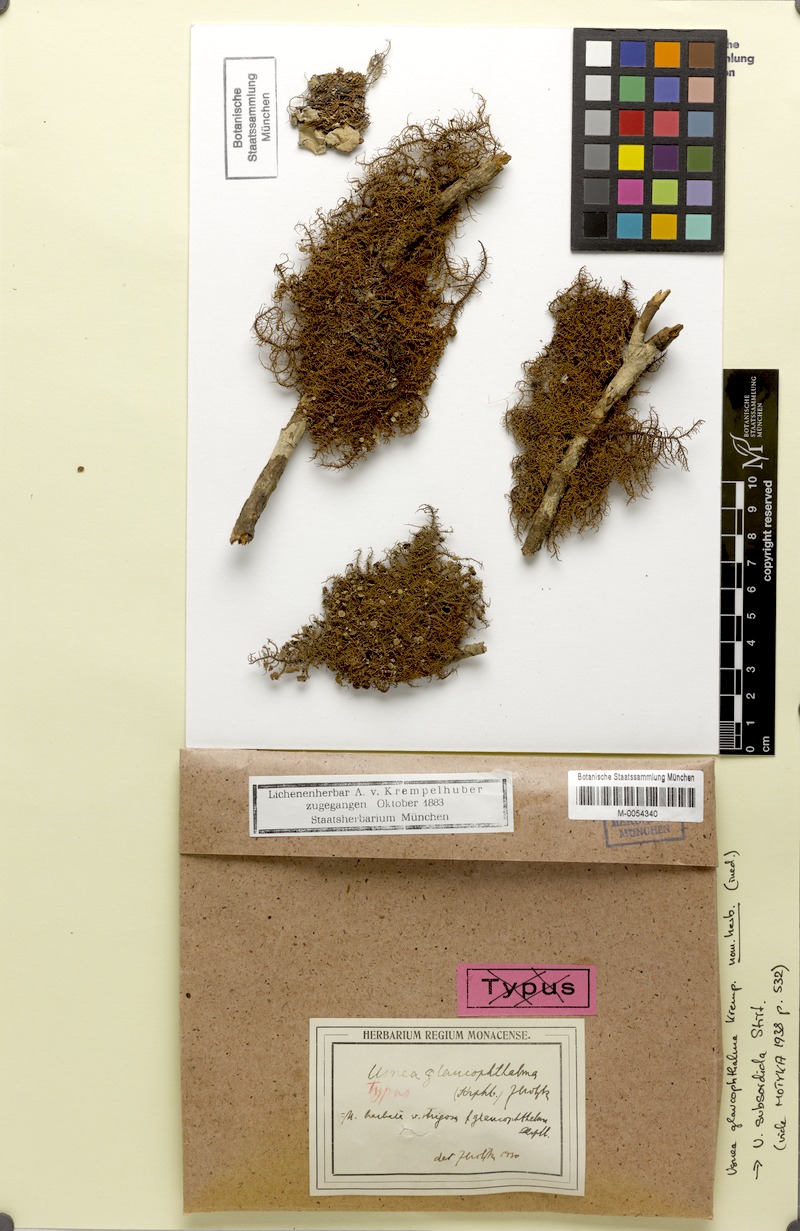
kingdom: Fungi
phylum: Ascomycota
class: Lecanoromycetes
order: Lecanorales
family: Parmeliaceae
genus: Usnea
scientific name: Usnea subsordida
